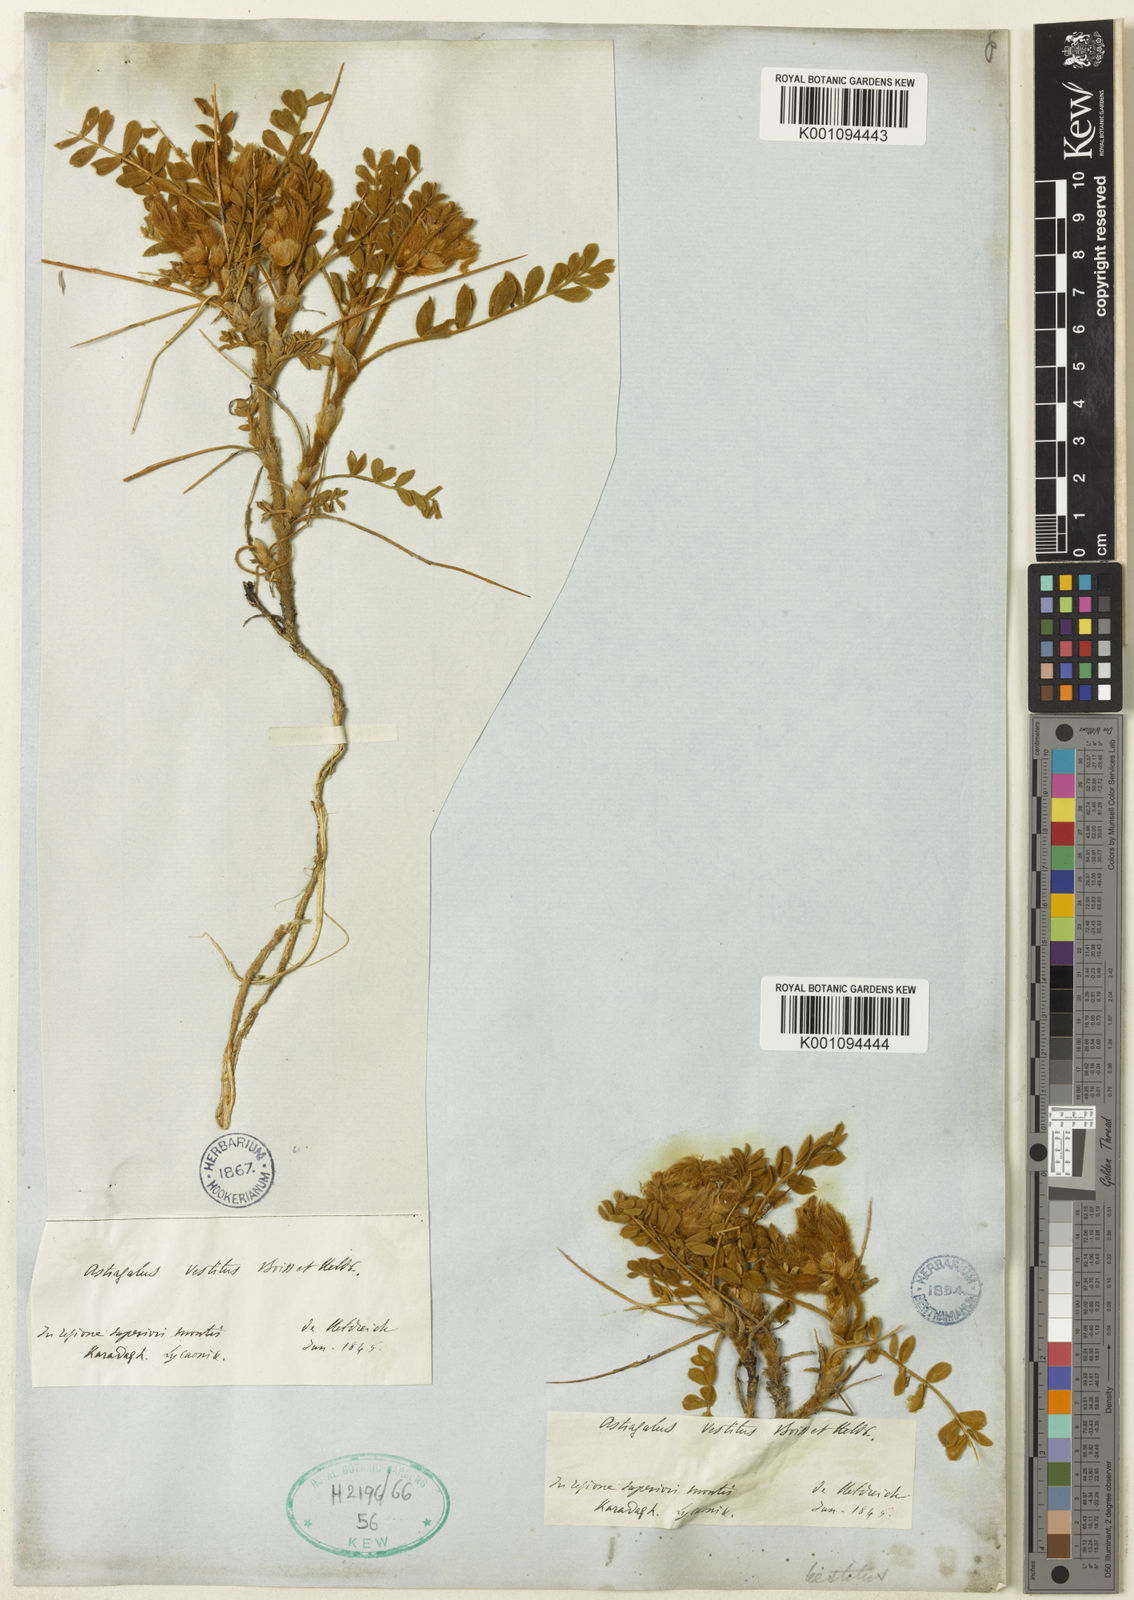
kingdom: Plantae
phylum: Tracheophyta
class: Magnoliopsida
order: Fabales
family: Fabaceae
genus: Astragalus
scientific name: Astragalus vestitus
